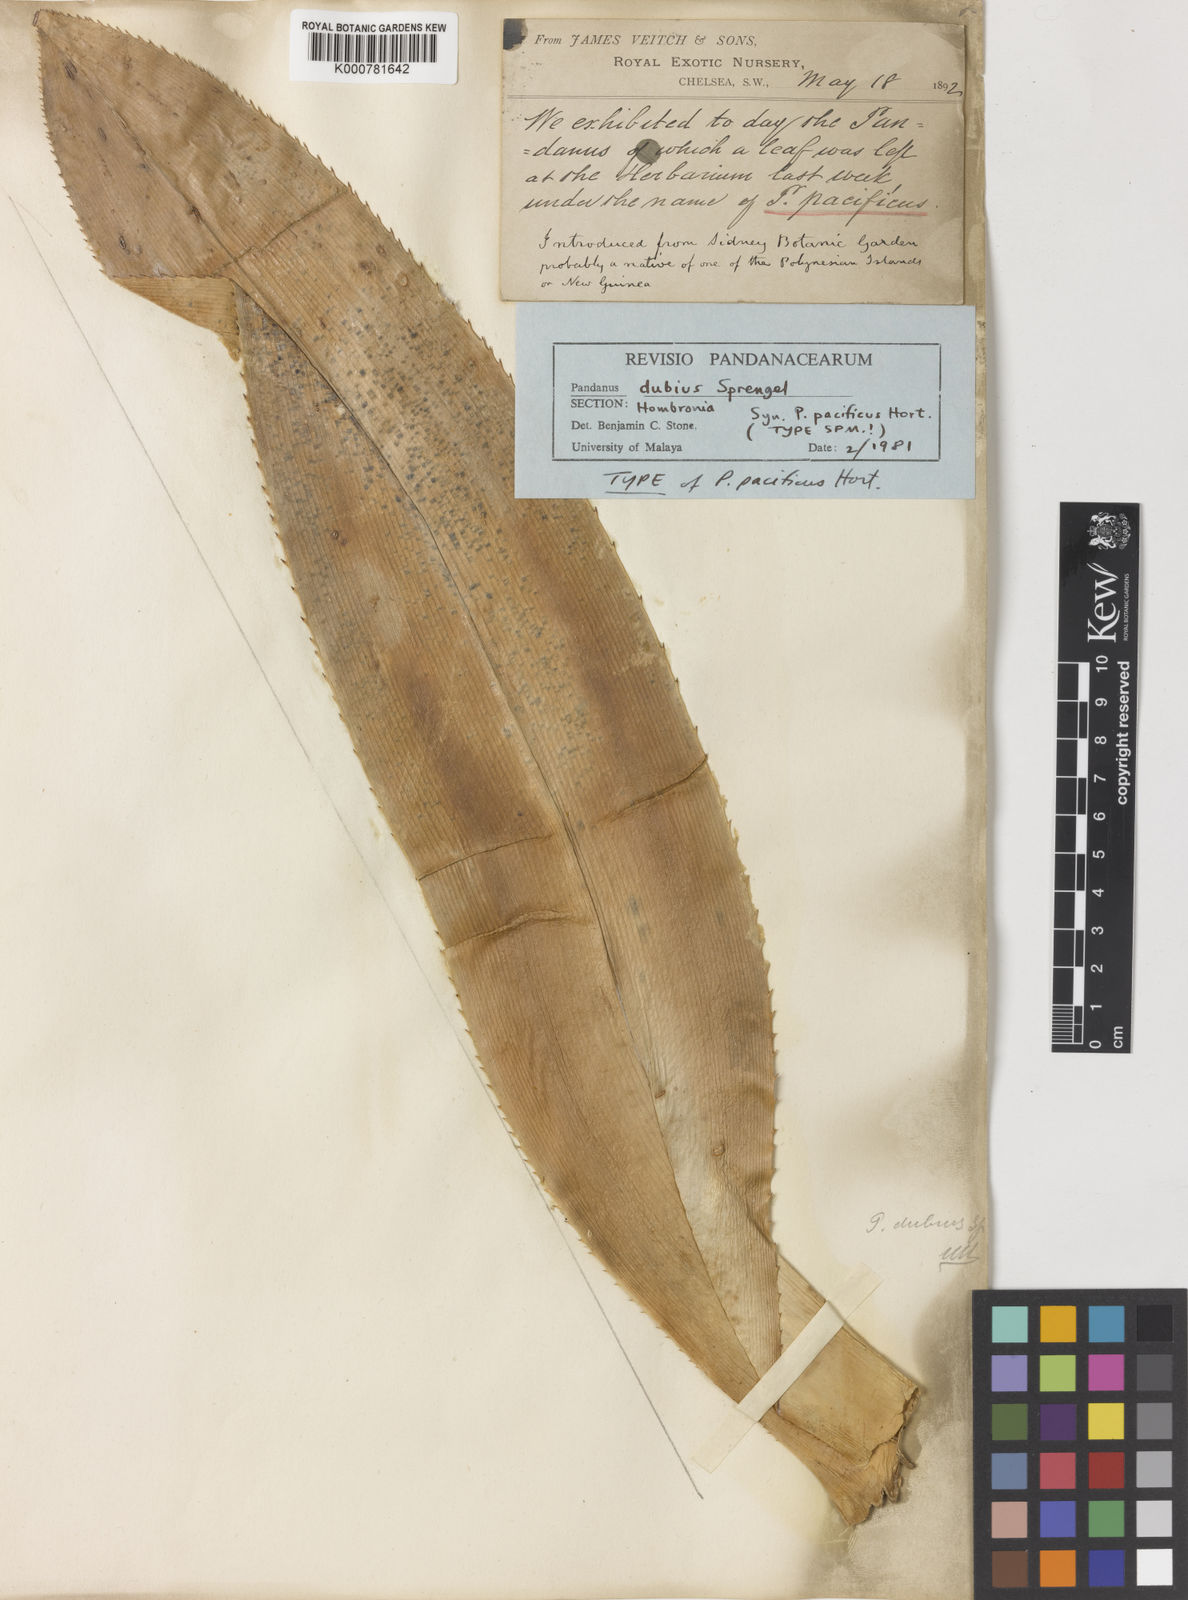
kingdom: Plantae
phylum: Tracheophyta
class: Liliopsida
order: Pandanales
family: Pandanaceae
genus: Pandanus
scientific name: Pandanus
